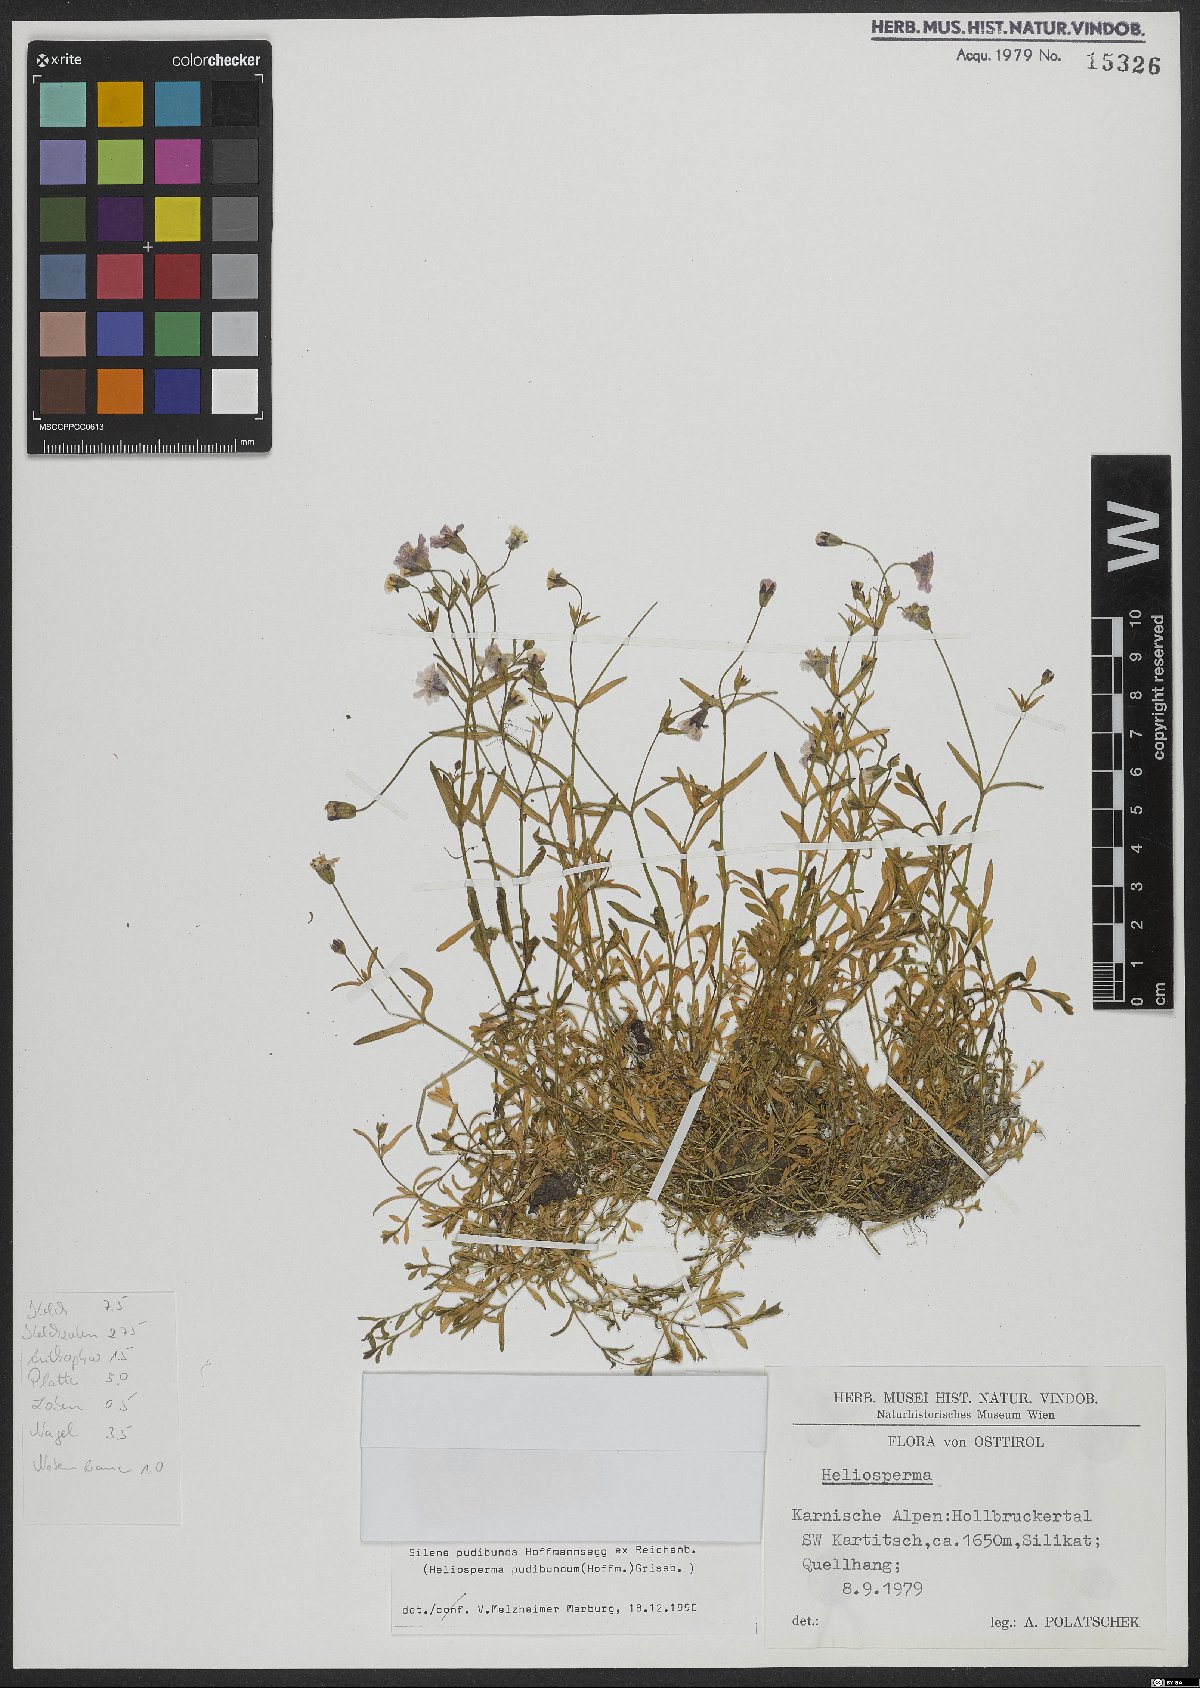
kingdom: Plantae
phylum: Tracheophyta
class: Magnoliopsida
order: Caryophyllales
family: Caryophyllaceae
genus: Heliosperma
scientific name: Heliosperma pudibundum
